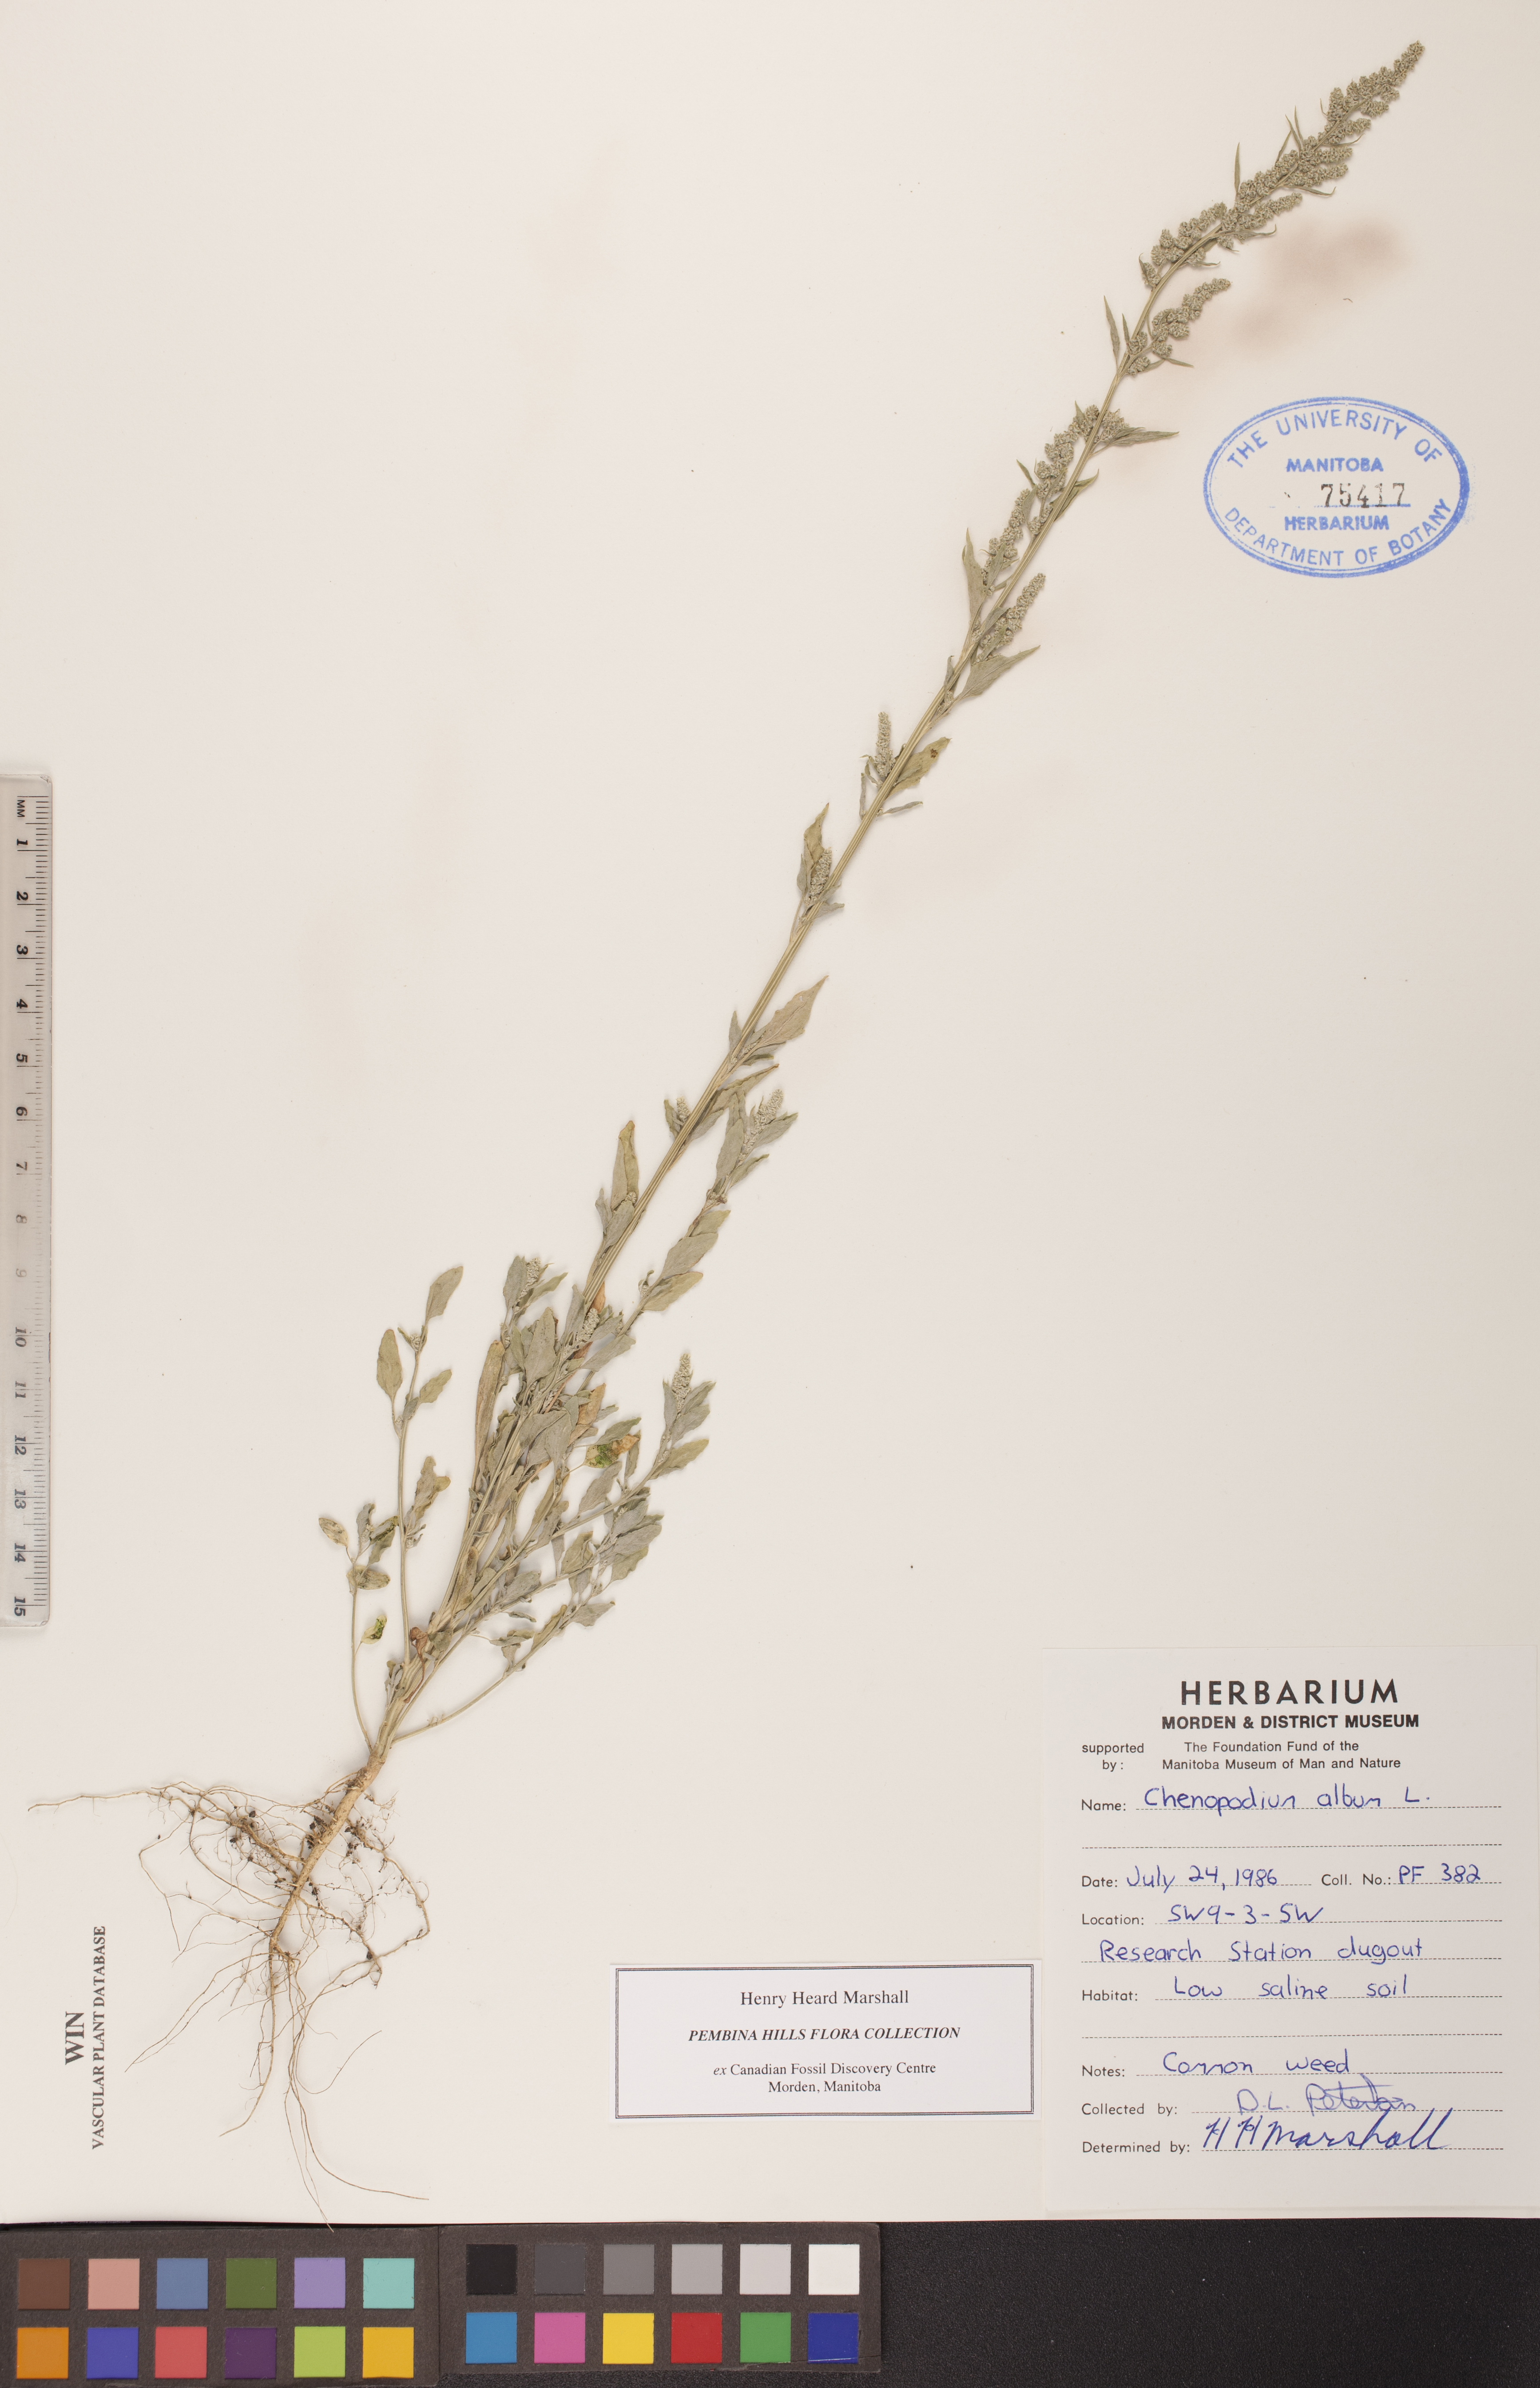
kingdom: Plantae
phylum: Tracheophyta
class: Magnoliopsida
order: Caryophyllales
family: Amaranthaceae
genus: Chenopodium
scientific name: Chenopodium album
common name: Fat-hen
